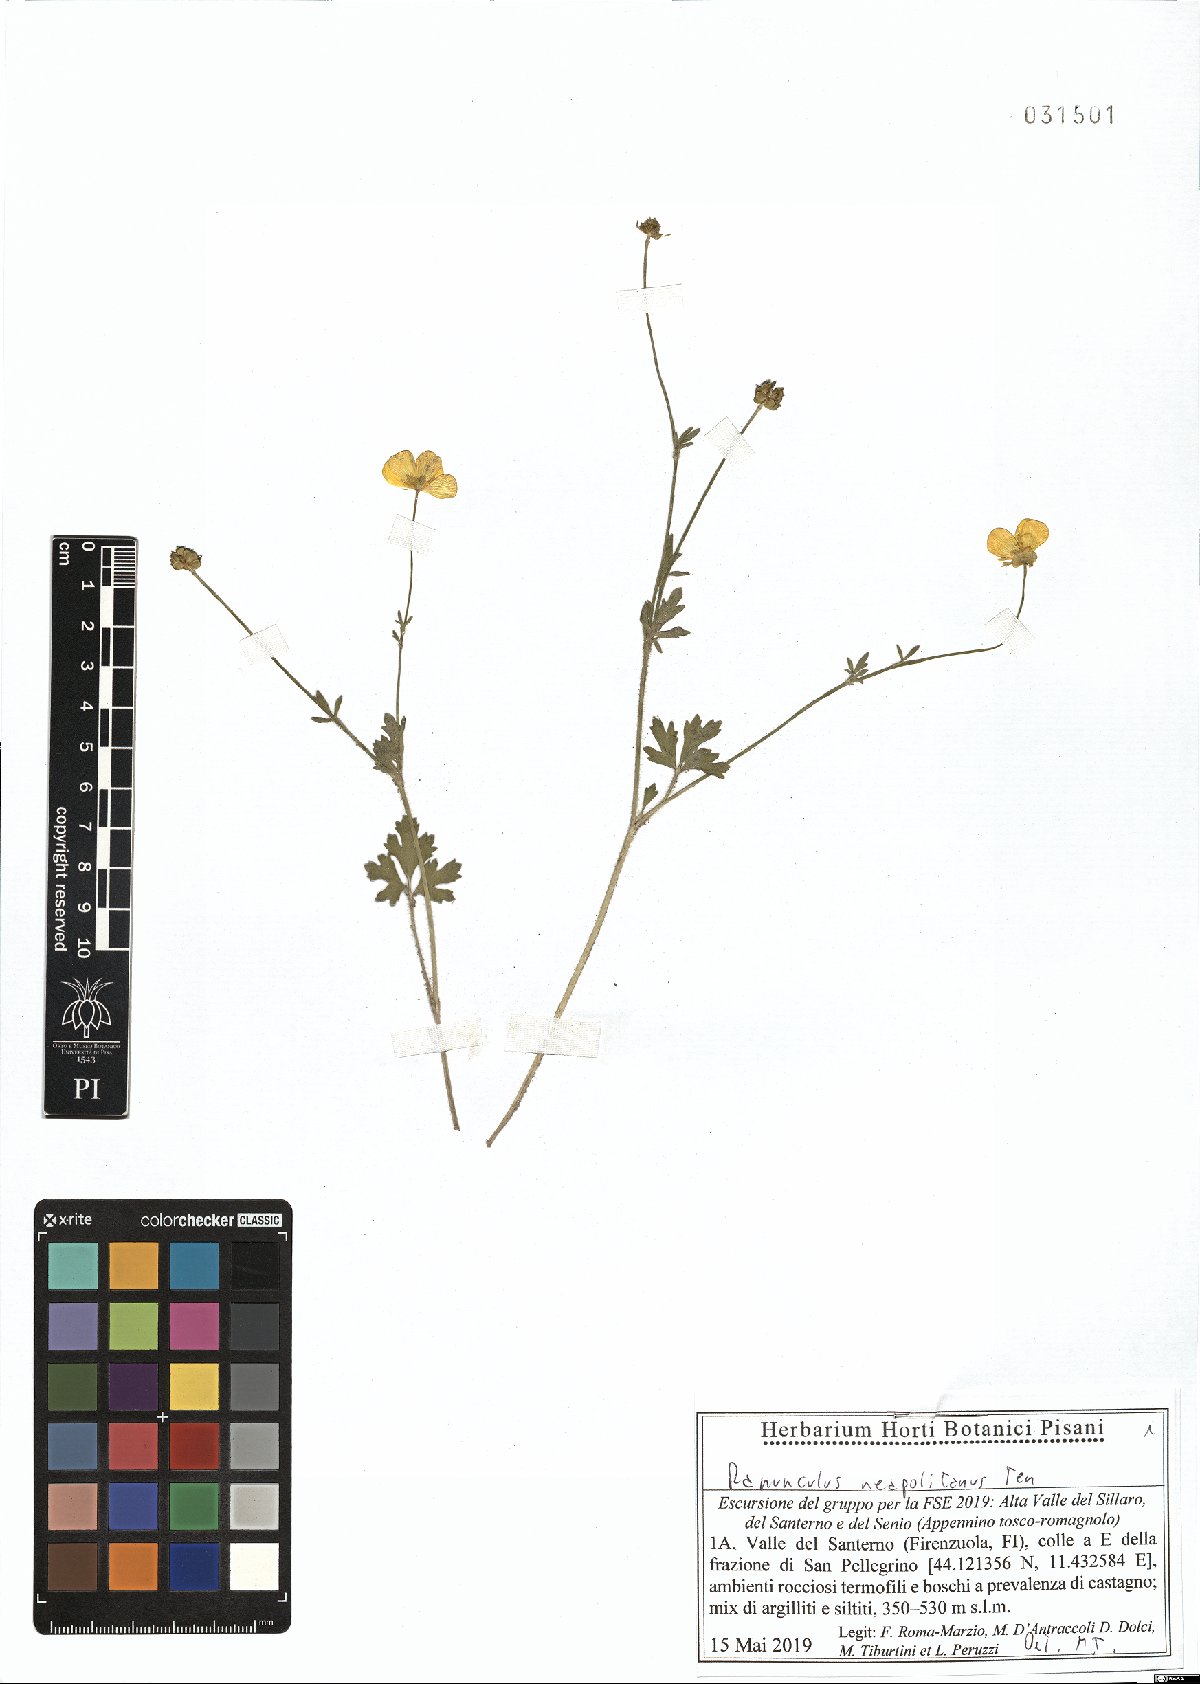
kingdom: Plantae
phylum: Tracheophyta
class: Magnoliopsida
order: Ranunculales
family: Ranunculaceae
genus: Ranunculus
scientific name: Ranunculus neapolitanus
